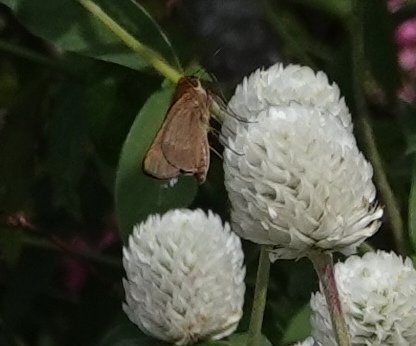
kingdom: Animalia
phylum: Arthropoda
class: Insecta
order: Lepidoptera
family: Hesperiidae
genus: Panoquina
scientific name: Panoquina ocola
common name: Ocola Skipper
